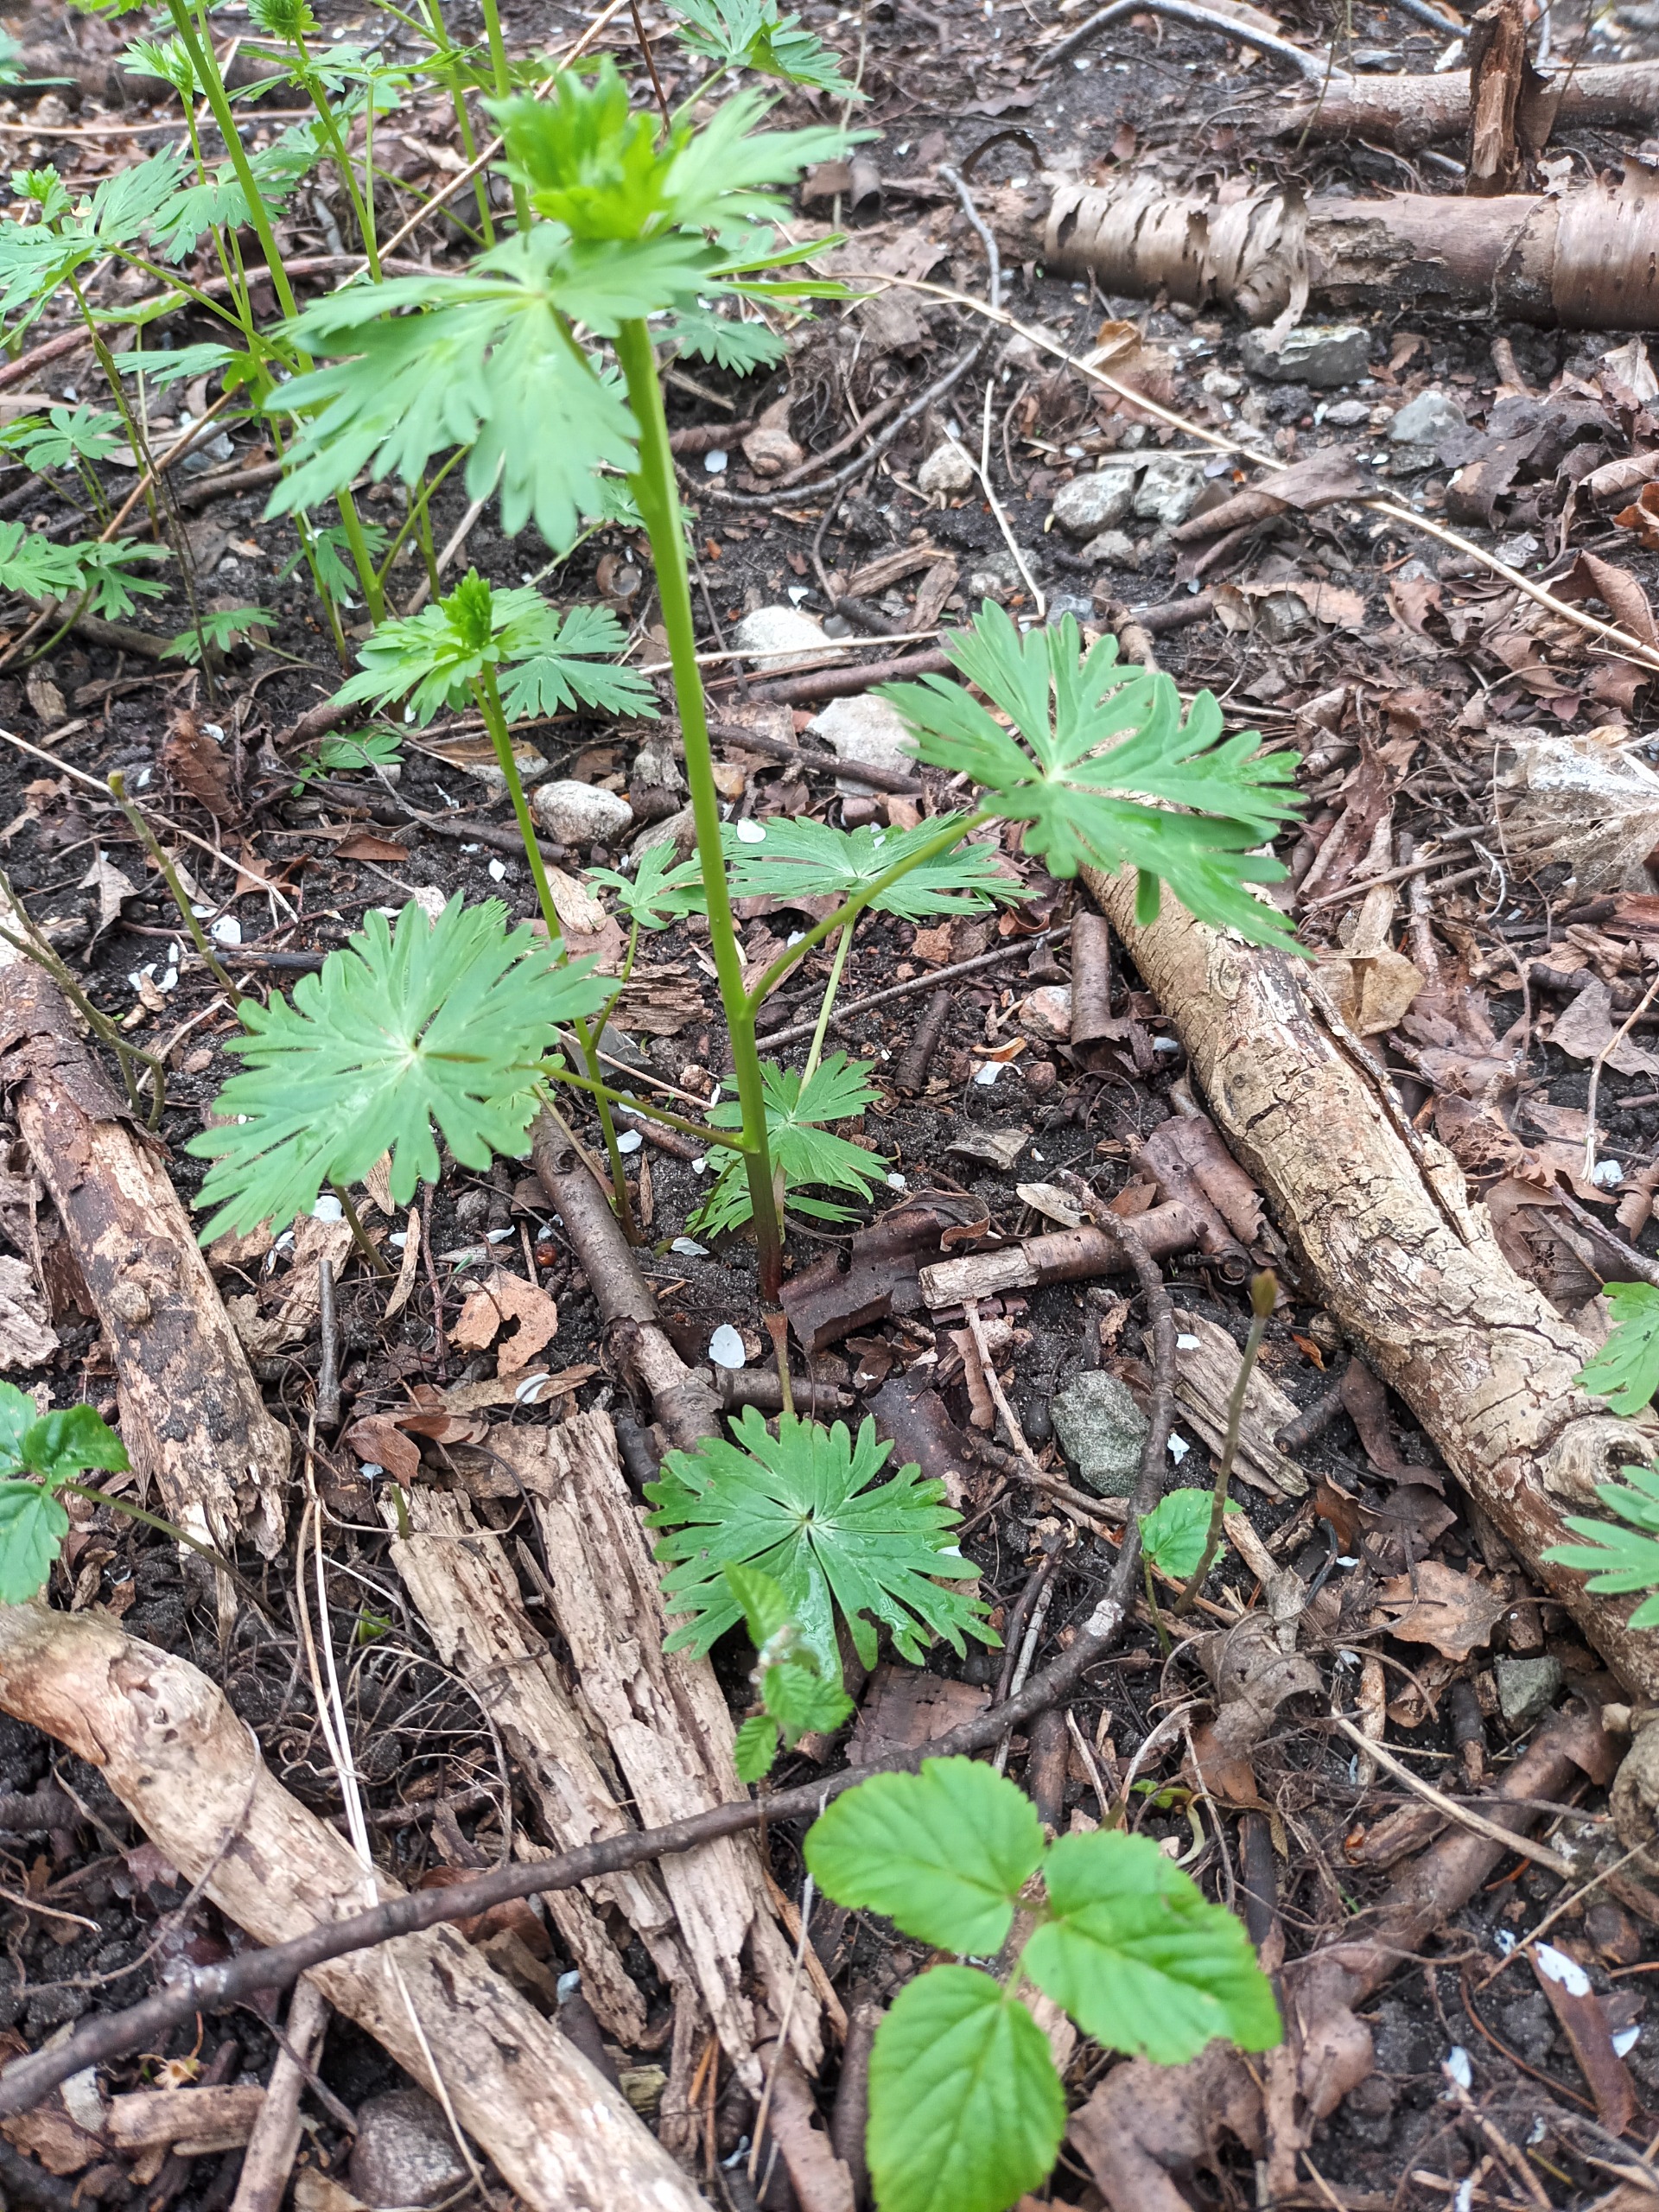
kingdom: Plantae
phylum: Tracheophyta
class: Magnoliopsida
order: Ranunculales
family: Ranunculaceae
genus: Aconitum
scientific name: Aconitum cammarum
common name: Have-stormhat
